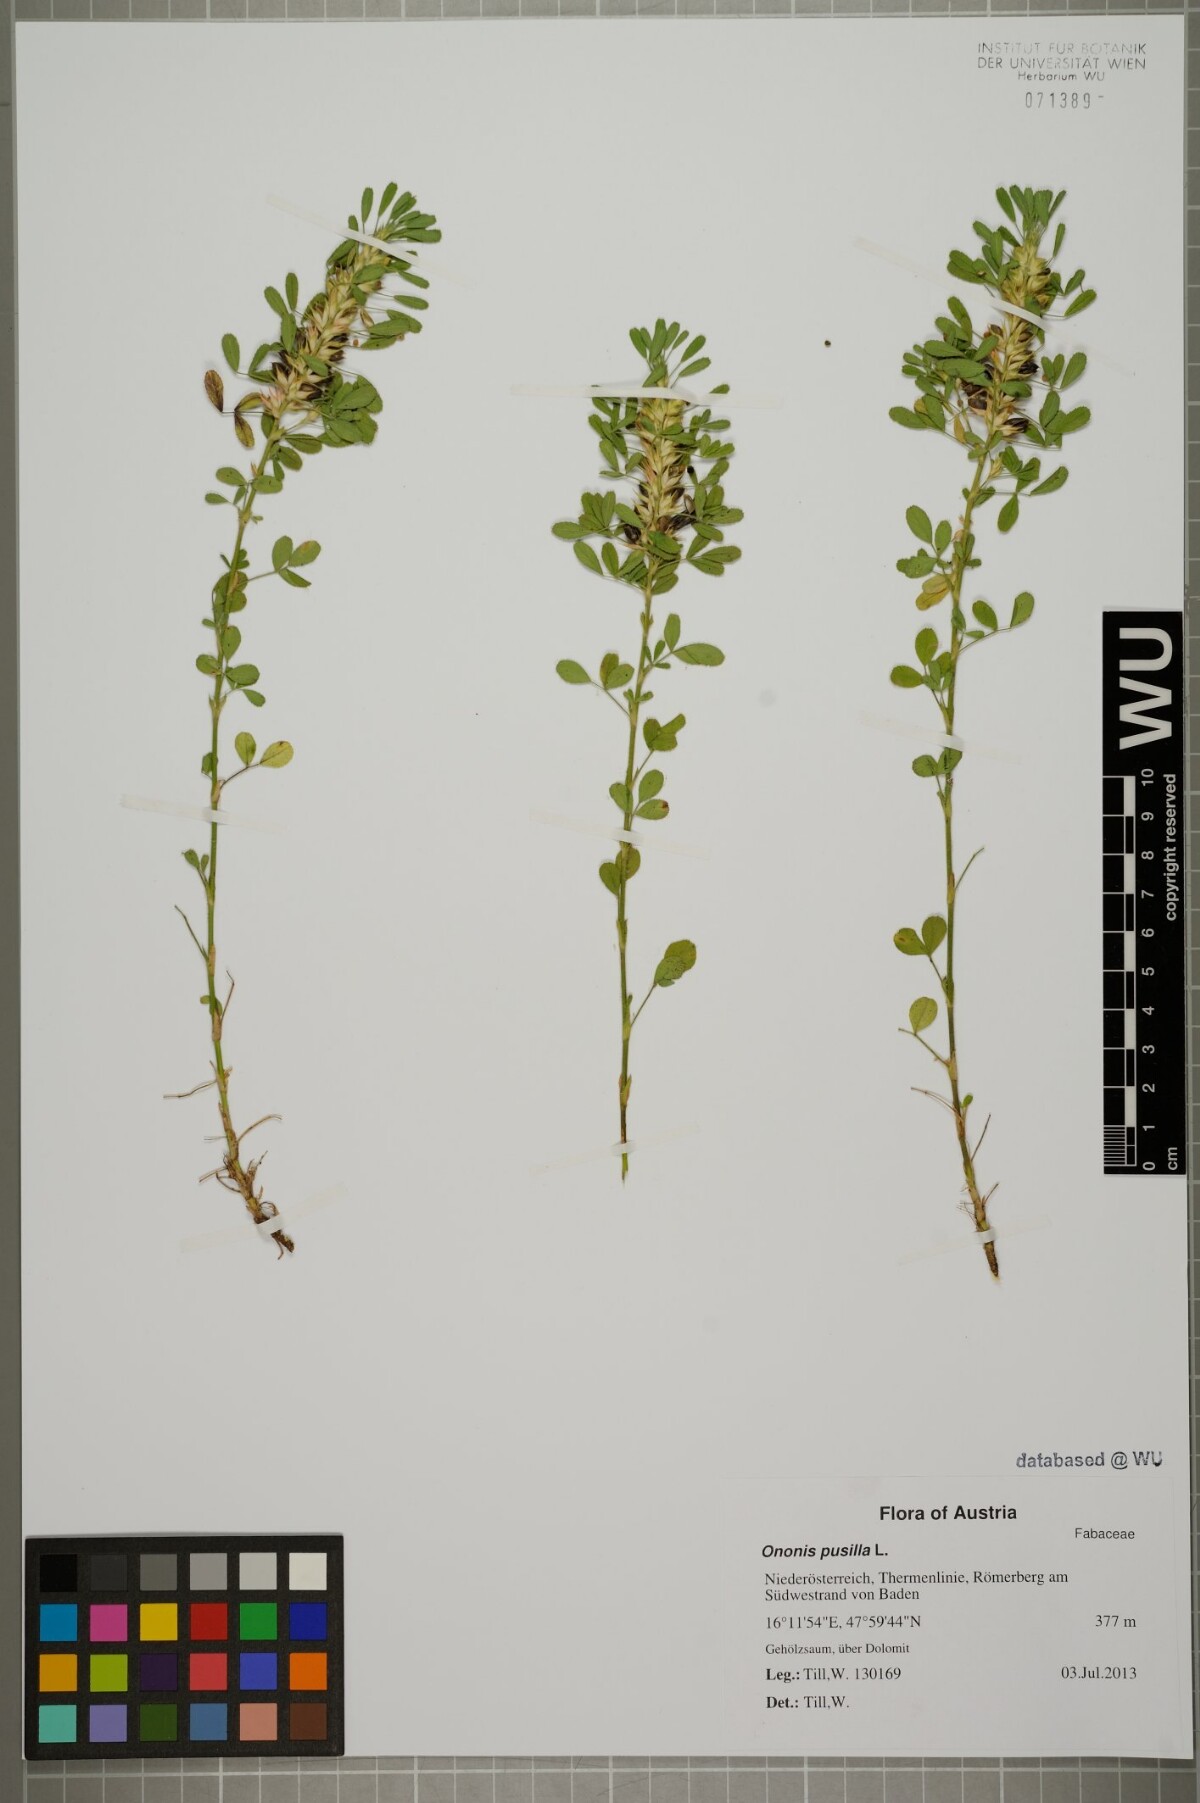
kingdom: Plantae
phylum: Tracheophyta
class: Magnoliopsida
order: Fabales
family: Fabaceae
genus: Ononis
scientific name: Ononis pusilla
